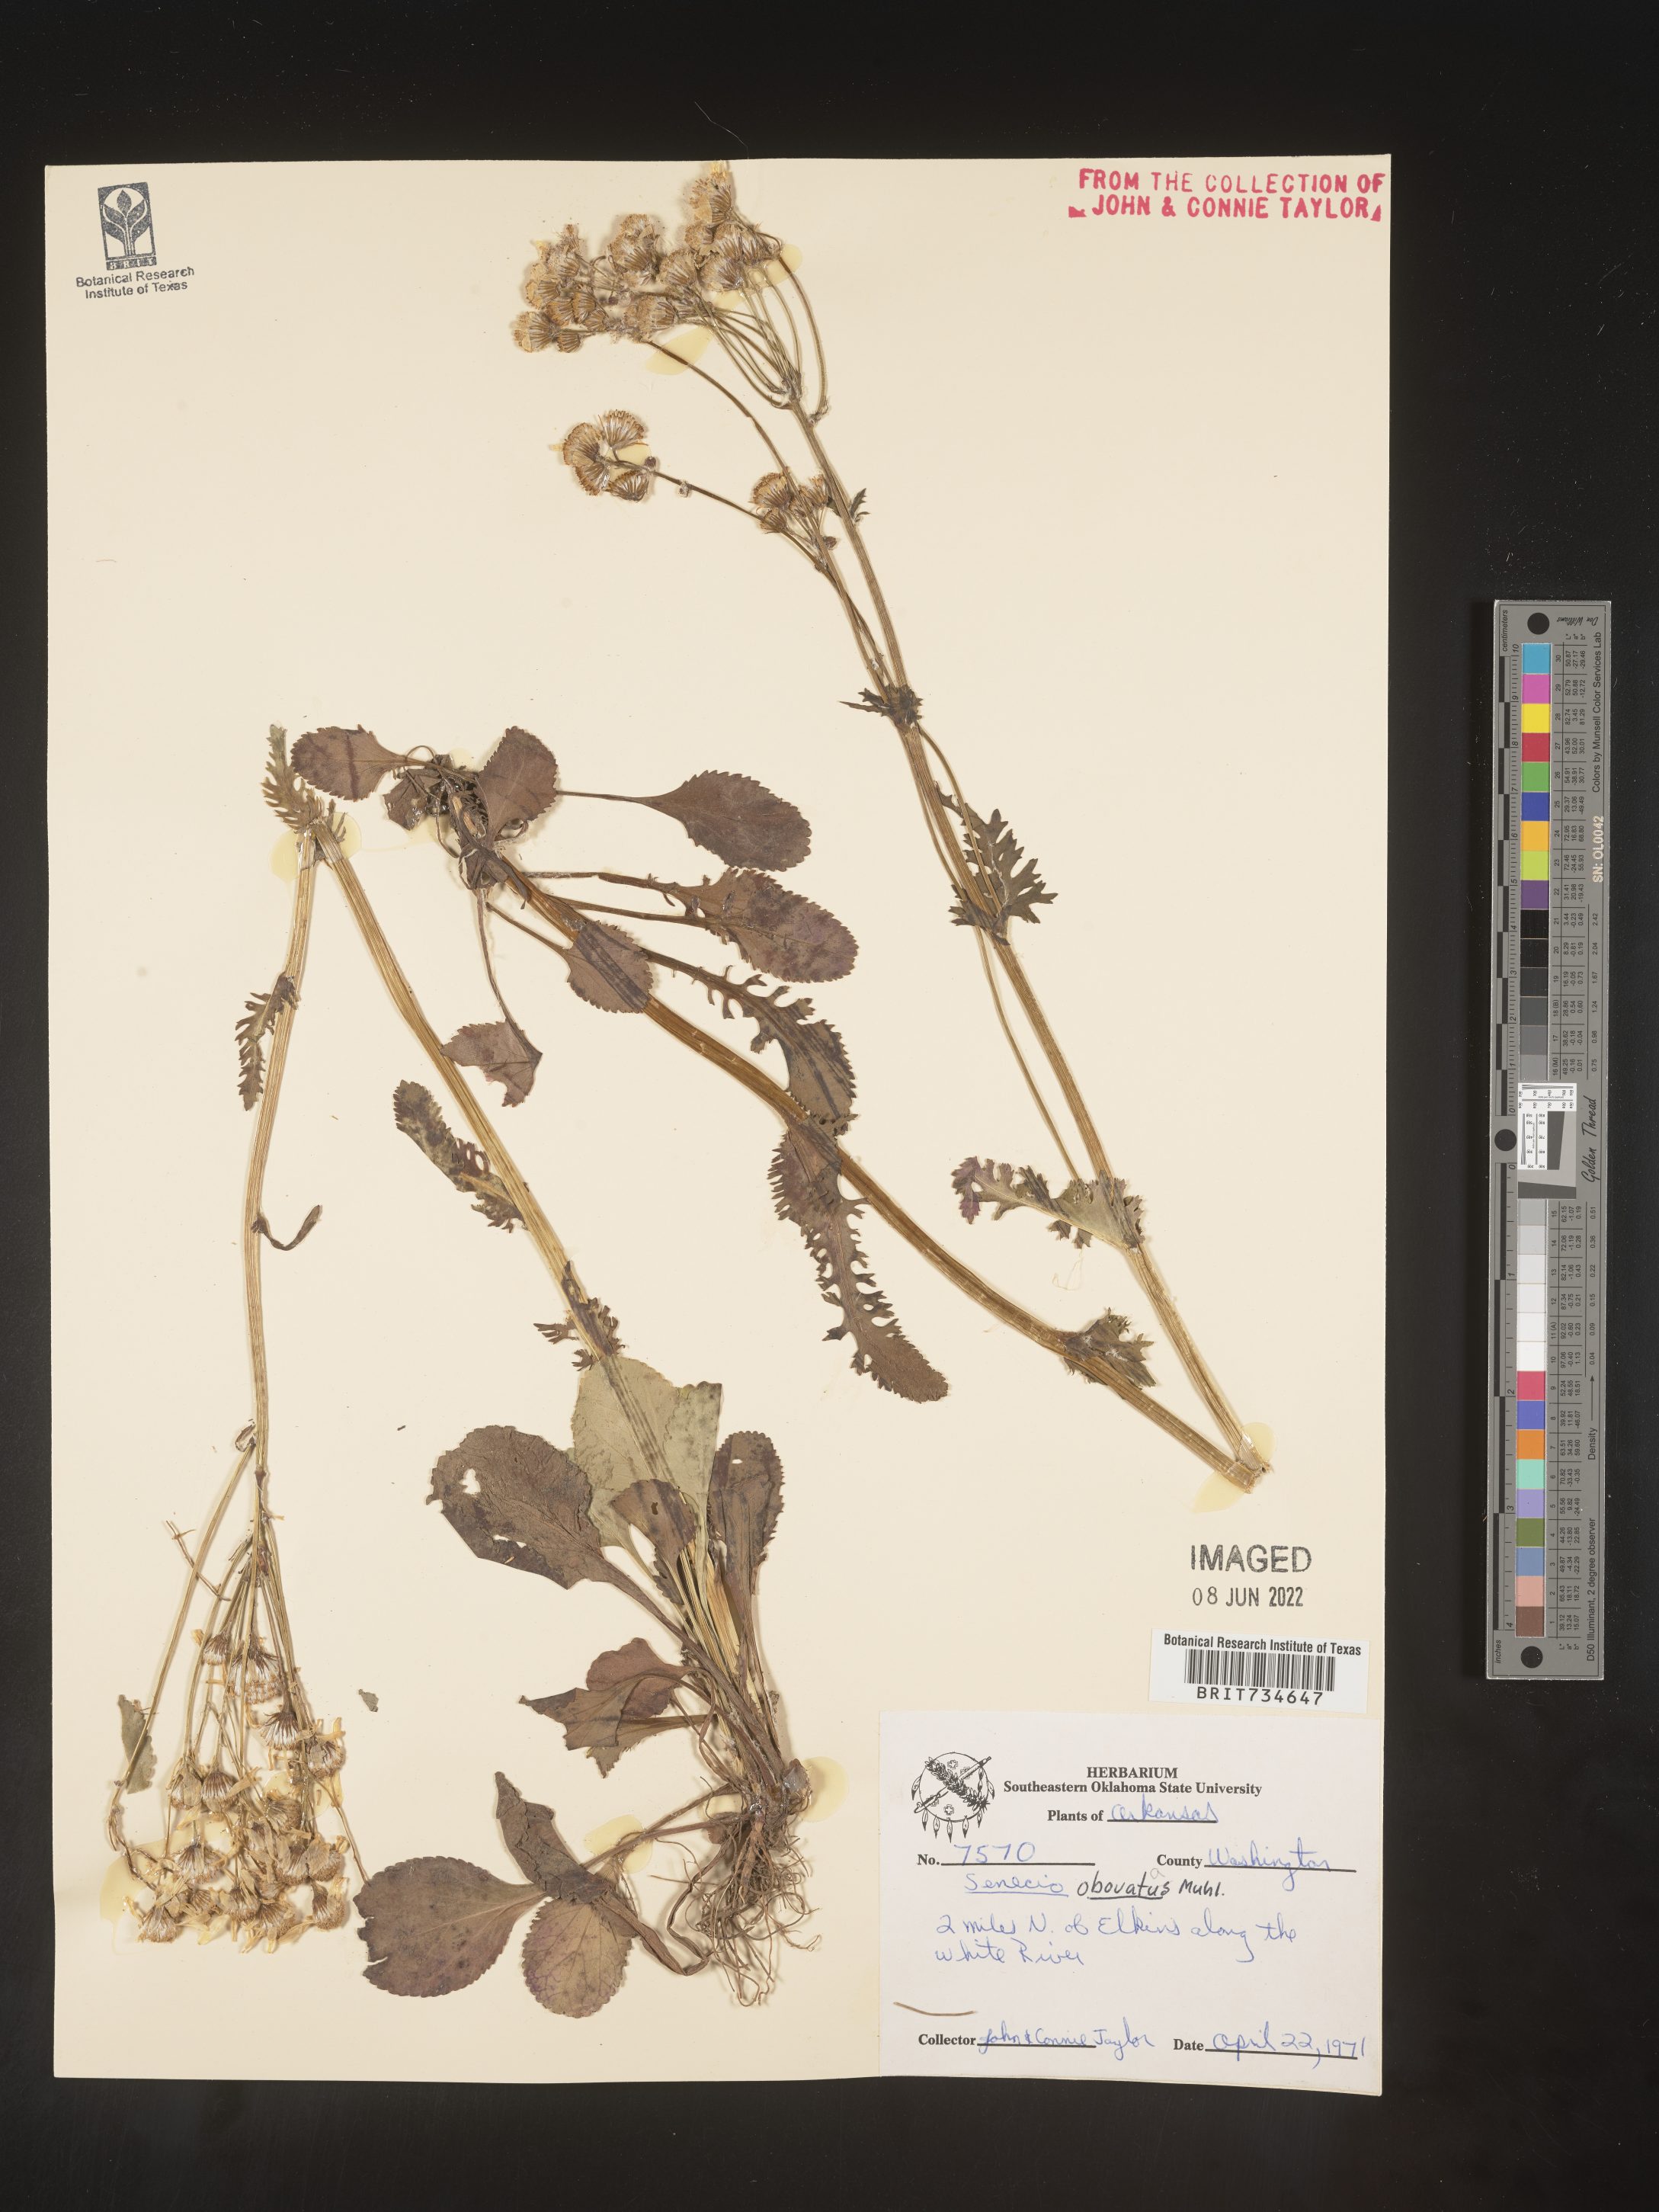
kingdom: Plantae
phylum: Tracheophyta
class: Magnoliopsida
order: Asterales
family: Asteraceae
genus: Packera
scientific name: Packera obovata
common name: Round-leaf ragwort
